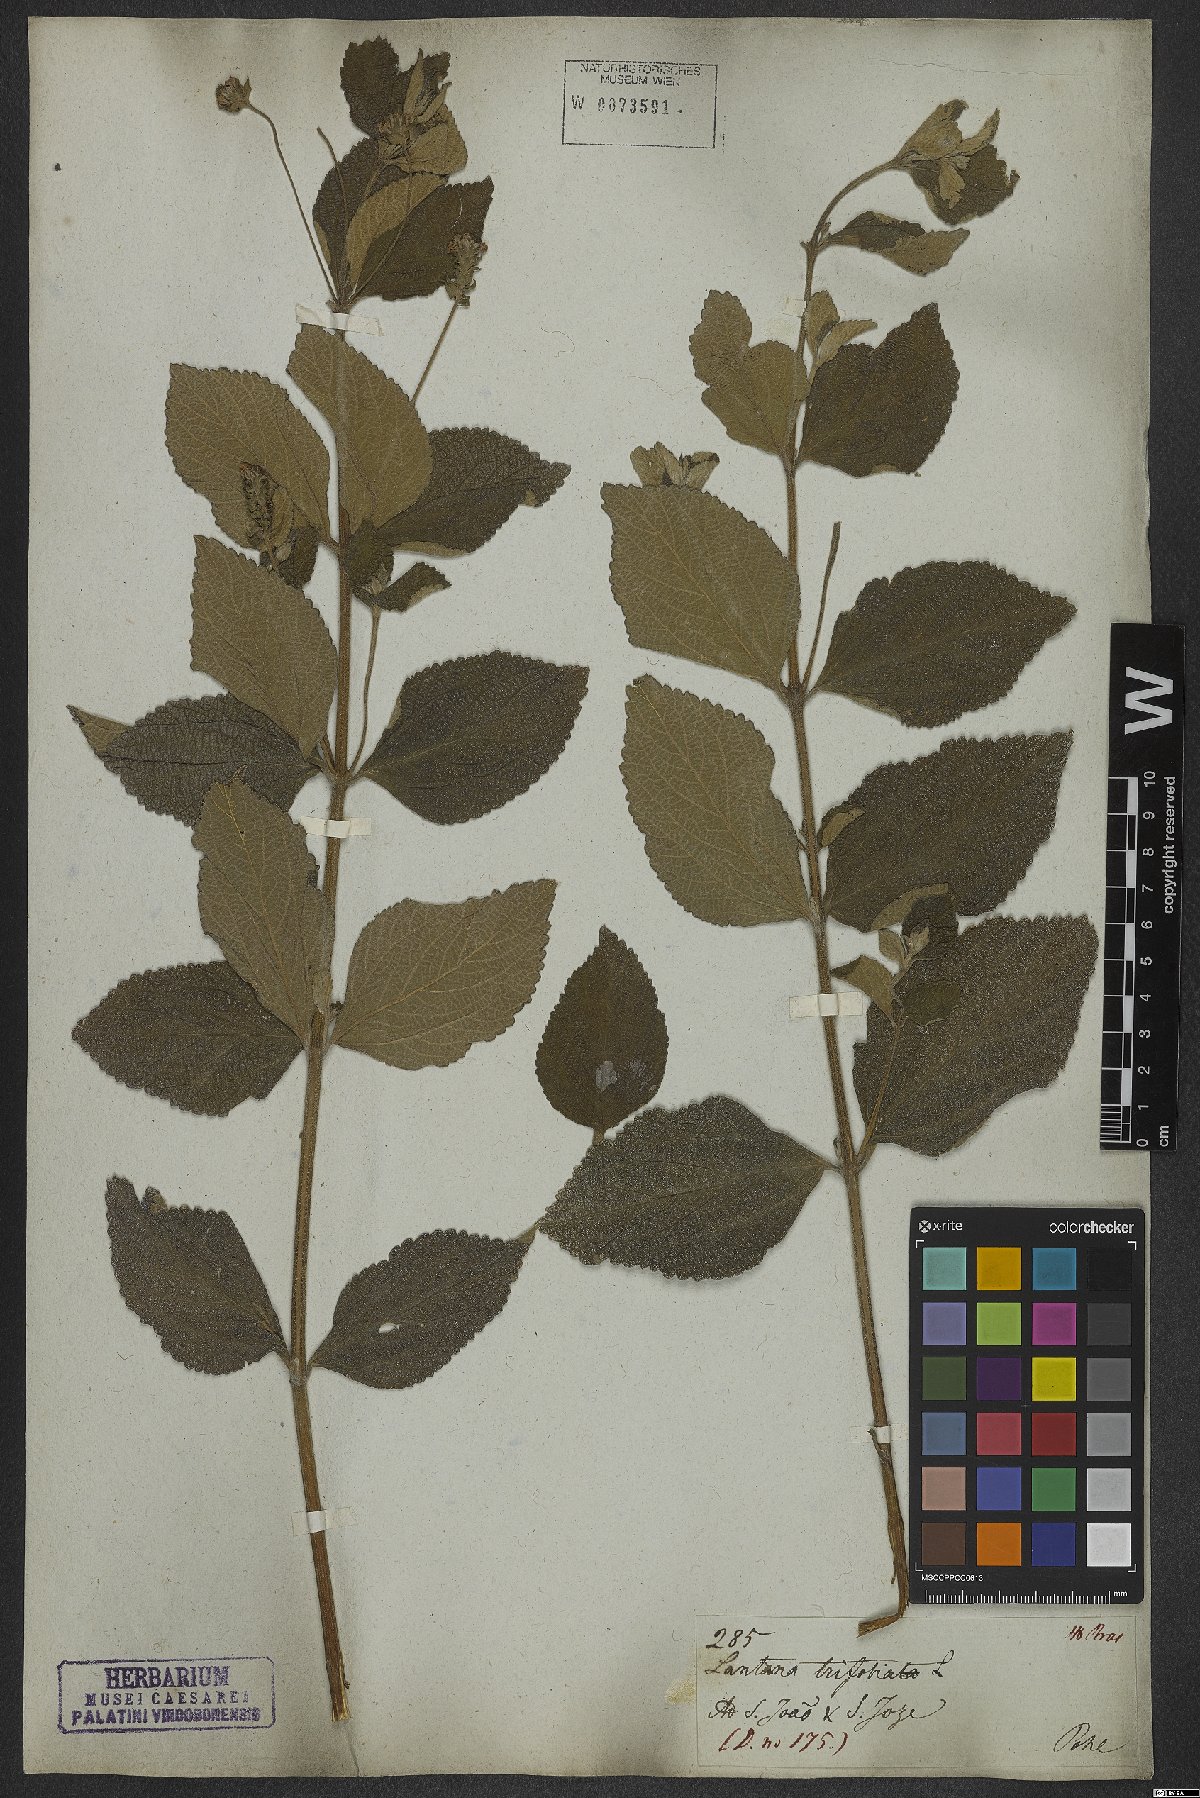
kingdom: Plantae
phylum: Tracheophyta
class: Magnoliopsida
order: Lamiales
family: Verbenaceae
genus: Lantana
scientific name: Lantana trifolia
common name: Sweet-sage
